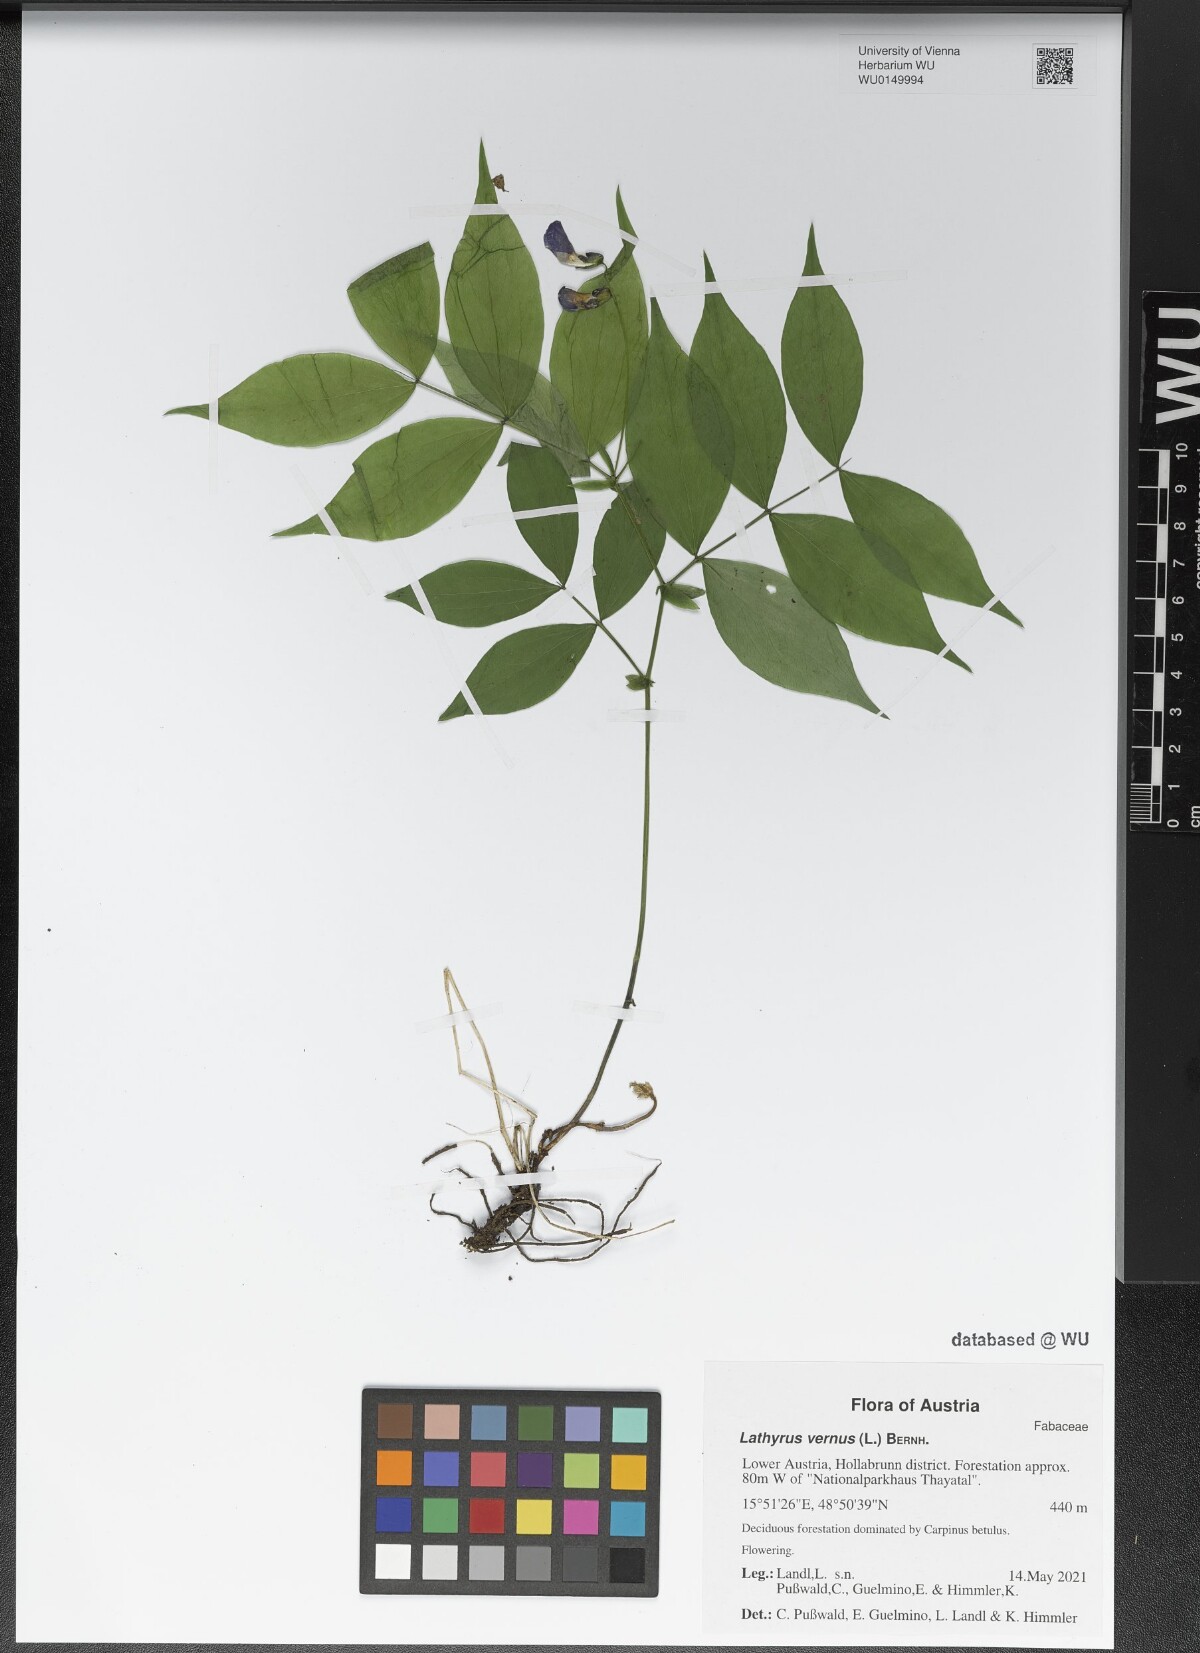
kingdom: Plantae
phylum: Tracheophyta
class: Magnoliopsida
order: Fabales
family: Fabaceae
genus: Lathyrus
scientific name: Lathyrus vernus
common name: Spring pea
